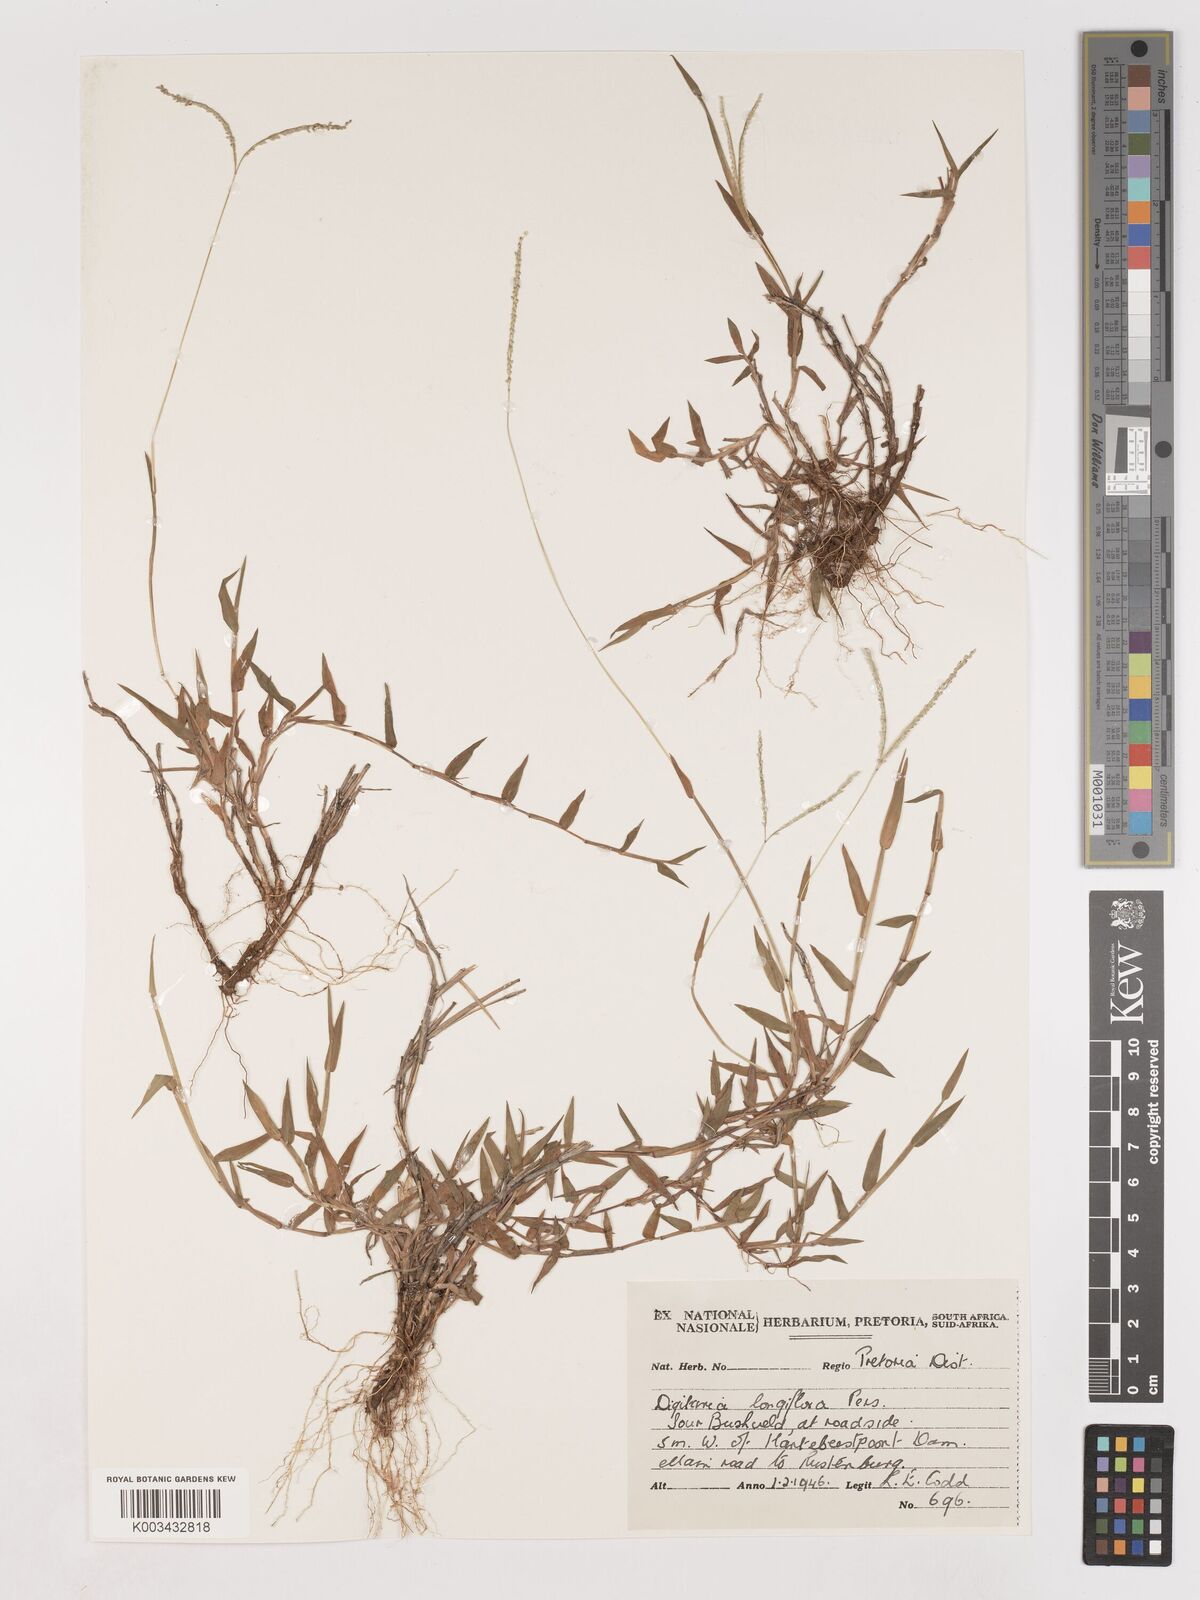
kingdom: Plantae
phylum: Tracheophyta
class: Liliopsida
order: Poales
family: Poaceae
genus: Digitaria
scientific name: Digitaria longiflora
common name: Wire crabgrass
